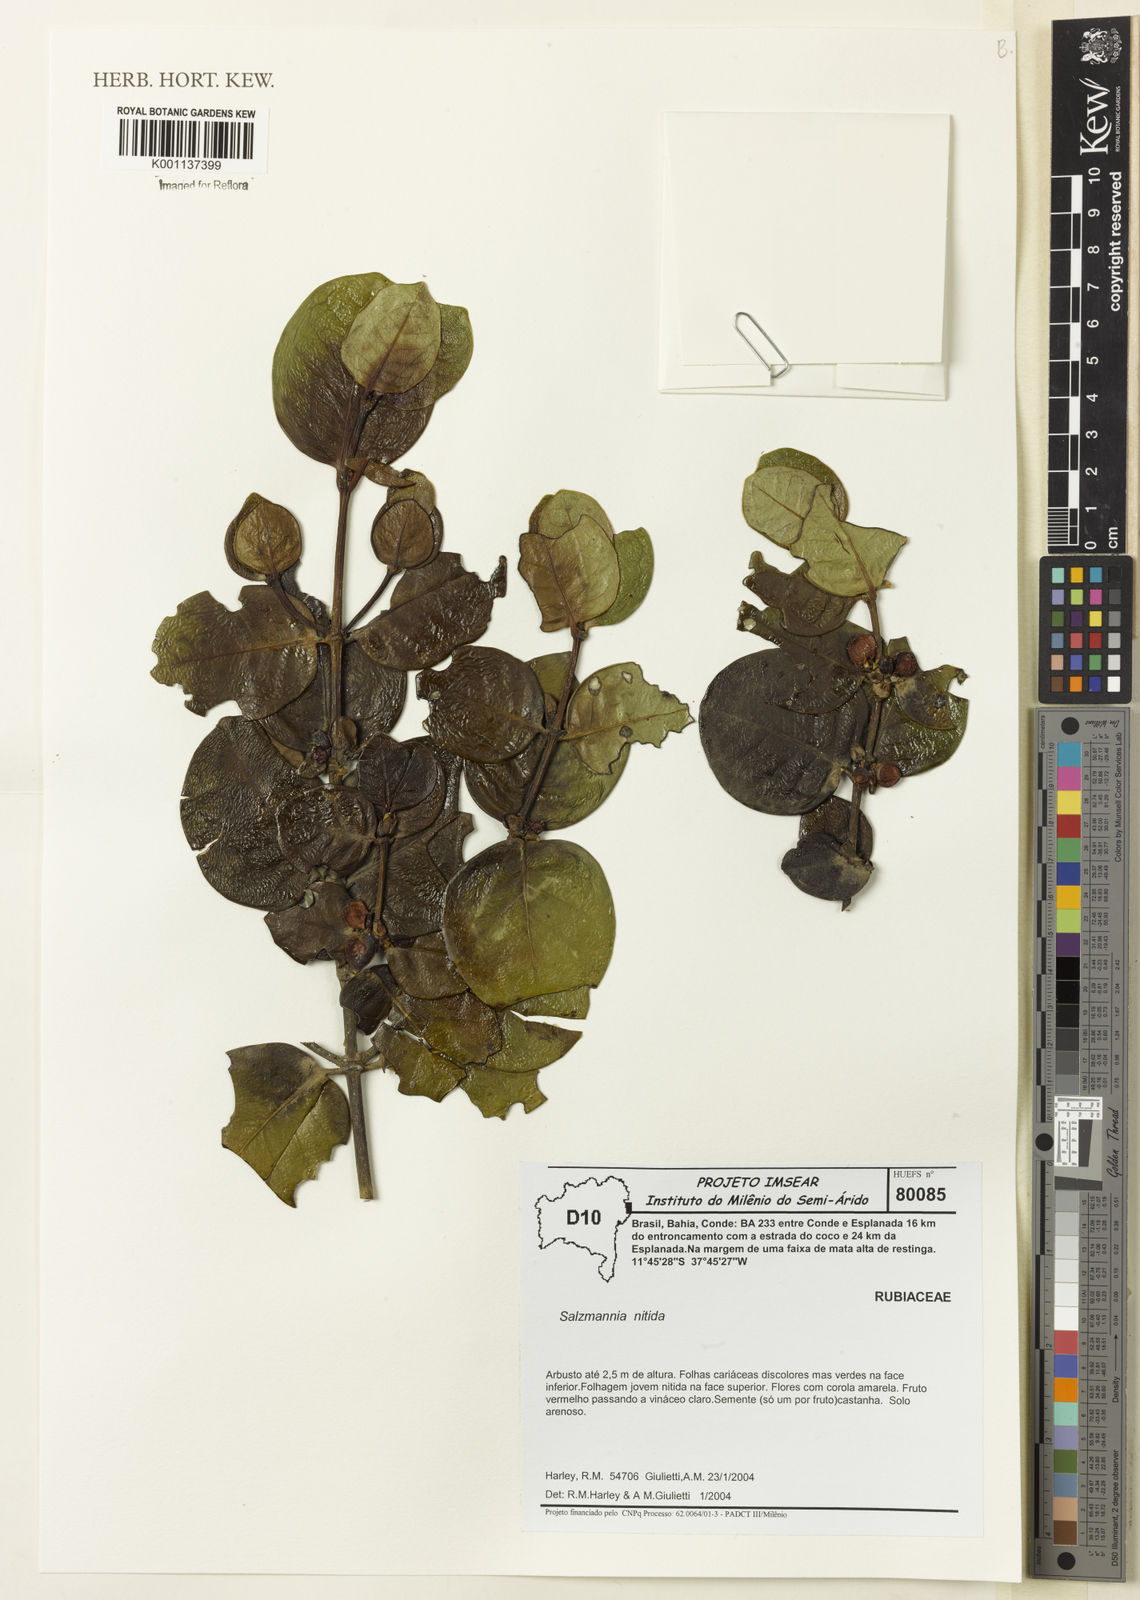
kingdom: Plantae
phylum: Tracheophyta
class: Magnoliopsida
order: Gentianales
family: Rubiaceae
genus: Salzmannia
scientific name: Salzmannia nitida
